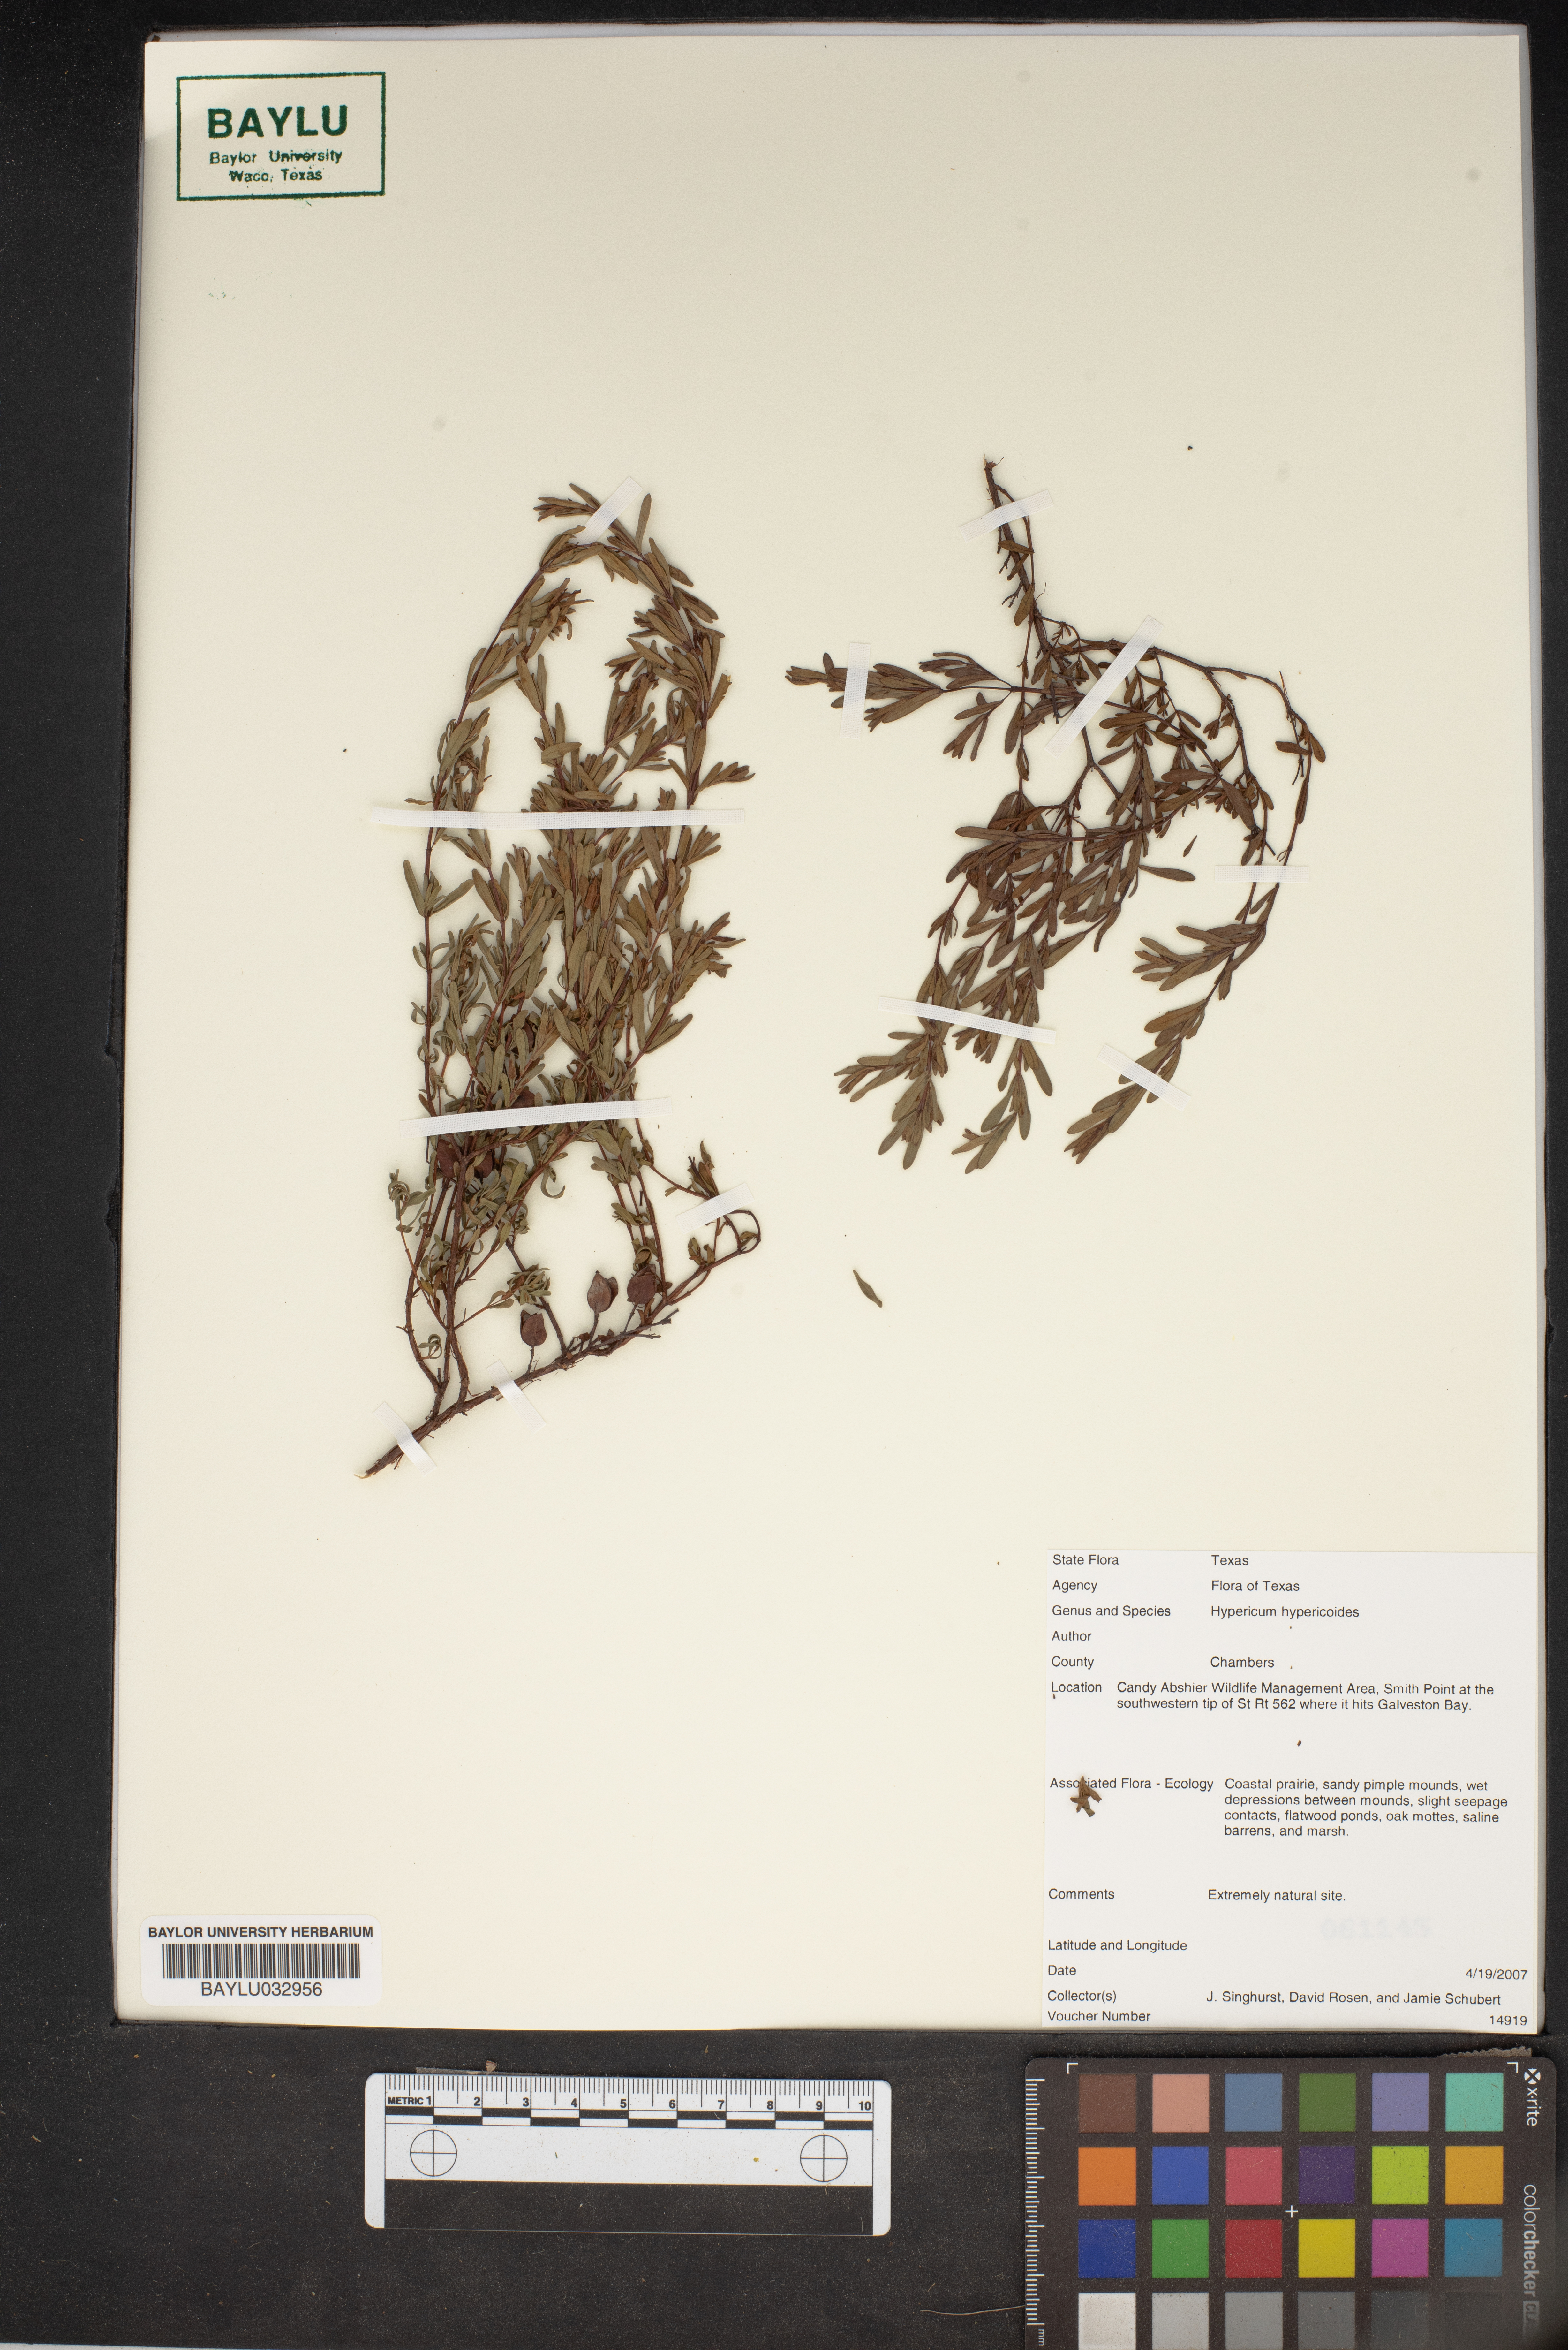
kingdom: Plantae
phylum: Tracheophyta
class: Magnoliopsida
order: Malpighiales
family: Hypericaceae
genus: Hypericum
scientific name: Hypericum hypericoides
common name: St. andrew's cross
